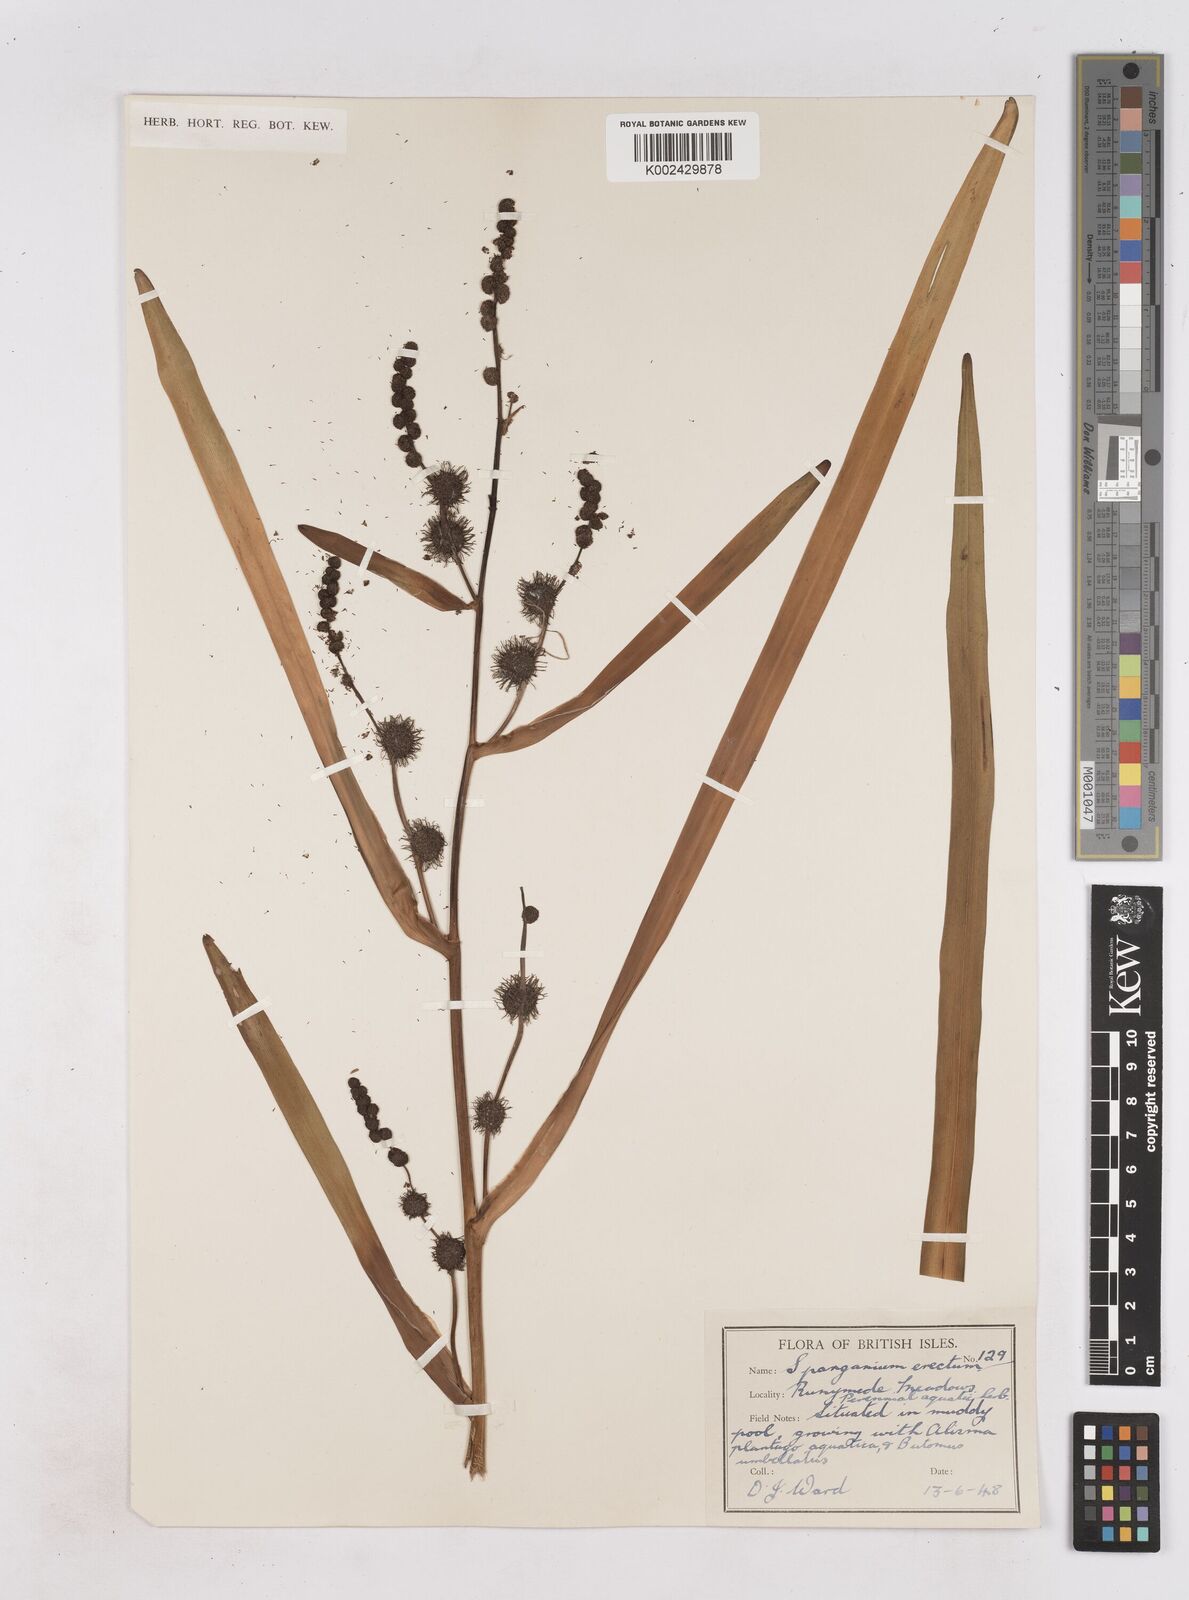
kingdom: Plantae
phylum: Tracheophyta
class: Liliopsida
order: Poales
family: Typhaceae
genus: Sparganium
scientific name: Sparganium erectum
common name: Branched bur-reed
